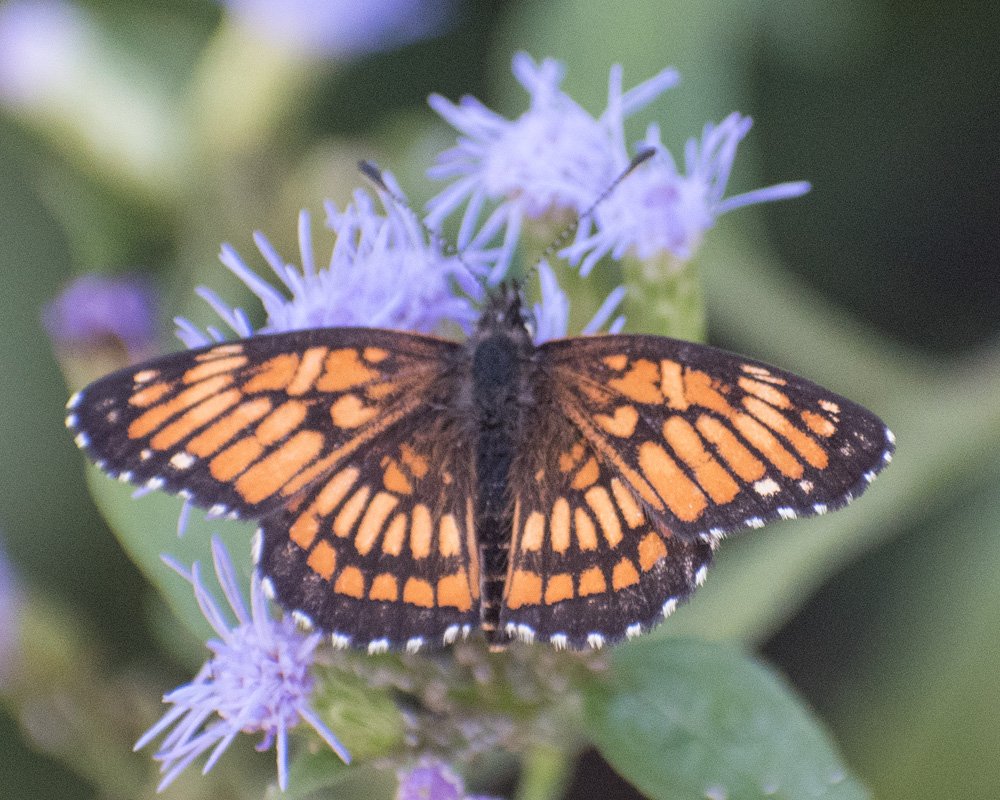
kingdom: Animalia
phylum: Arthropoda
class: Insecta
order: Lepidoptera
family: Nymphalidae
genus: Thessalia
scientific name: Thessalia theona
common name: Theona Checkerspot
